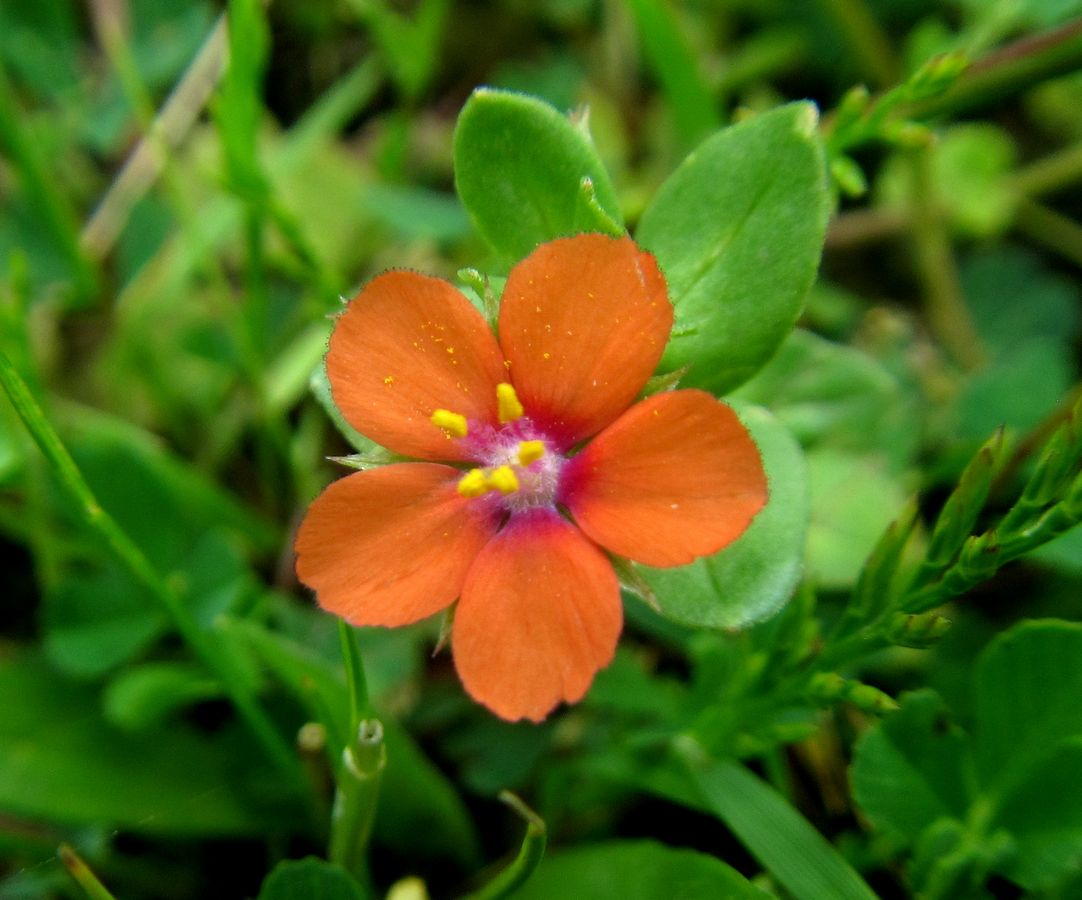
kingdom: Plantae
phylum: Tracheophyta
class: Magnoliopsida
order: Ericales
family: Primulaceae
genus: Lysimachia
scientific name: Lysimachia arvensis
